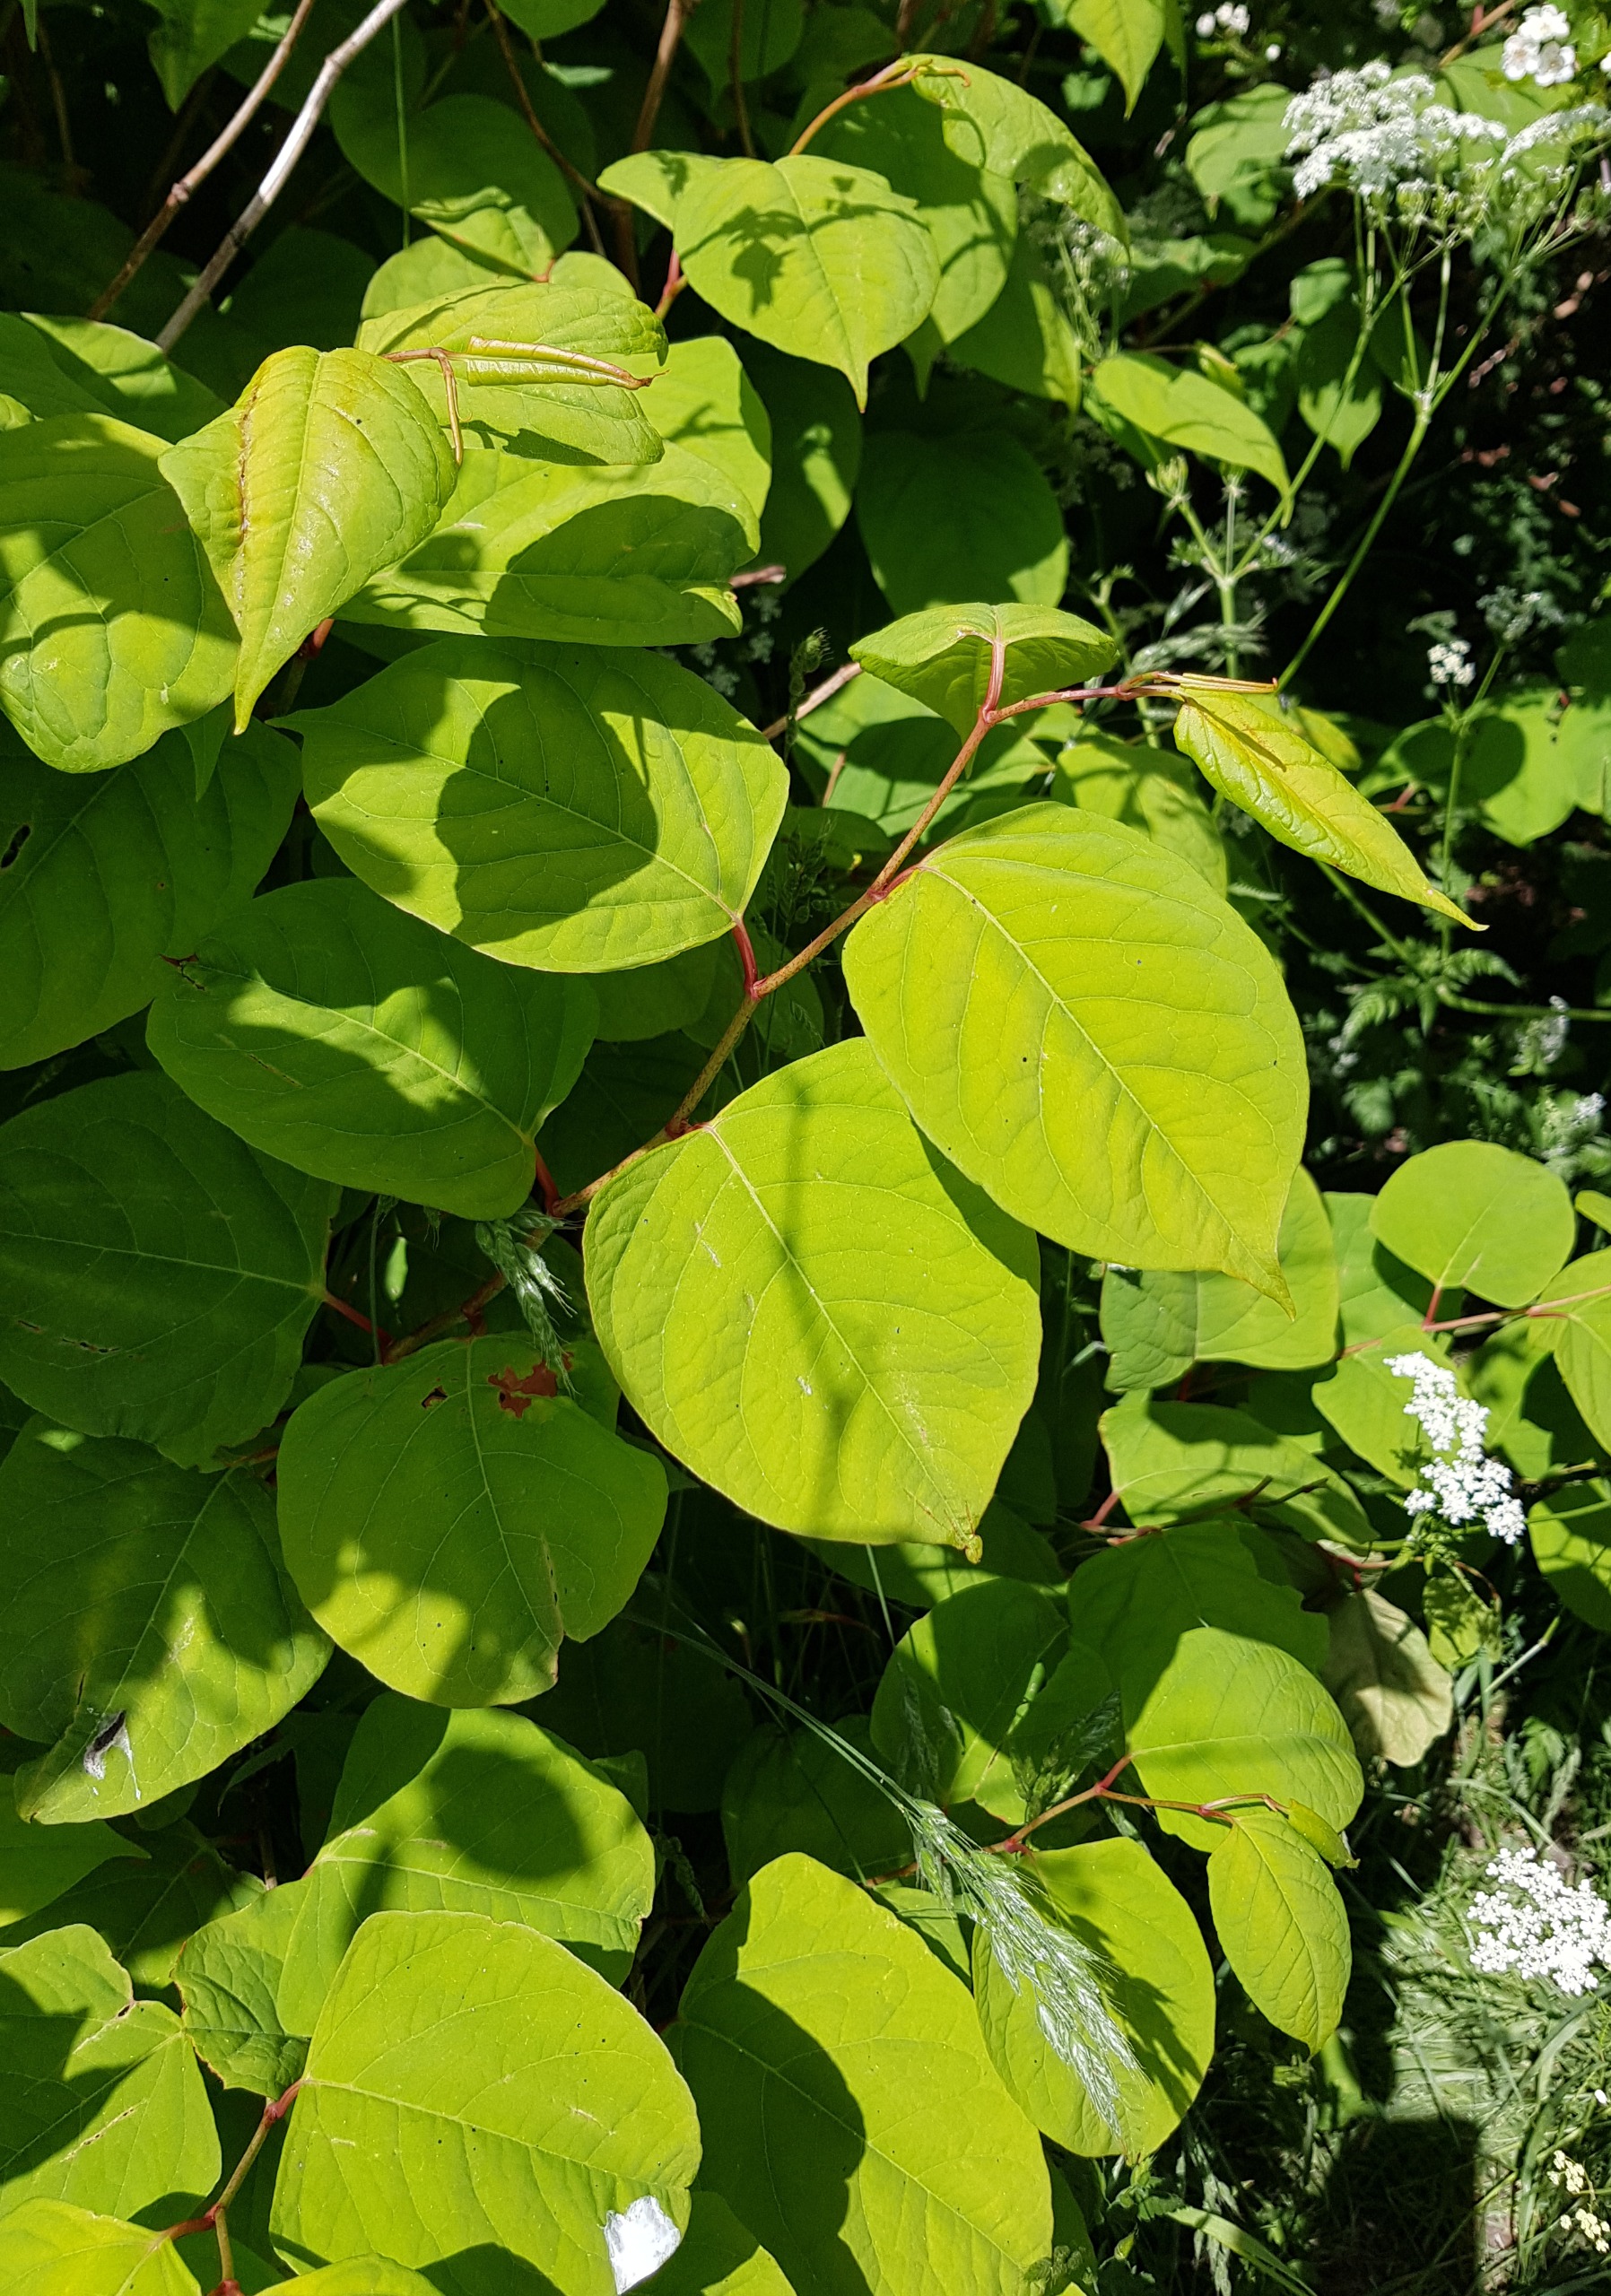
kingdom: Plantae
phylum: Tracheophyta
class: Magnoliopsida
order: Caryophyllales
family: Polygonaceae
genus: Reynoutria
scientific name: Reynoutria japonica
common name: Japan-pileurt
